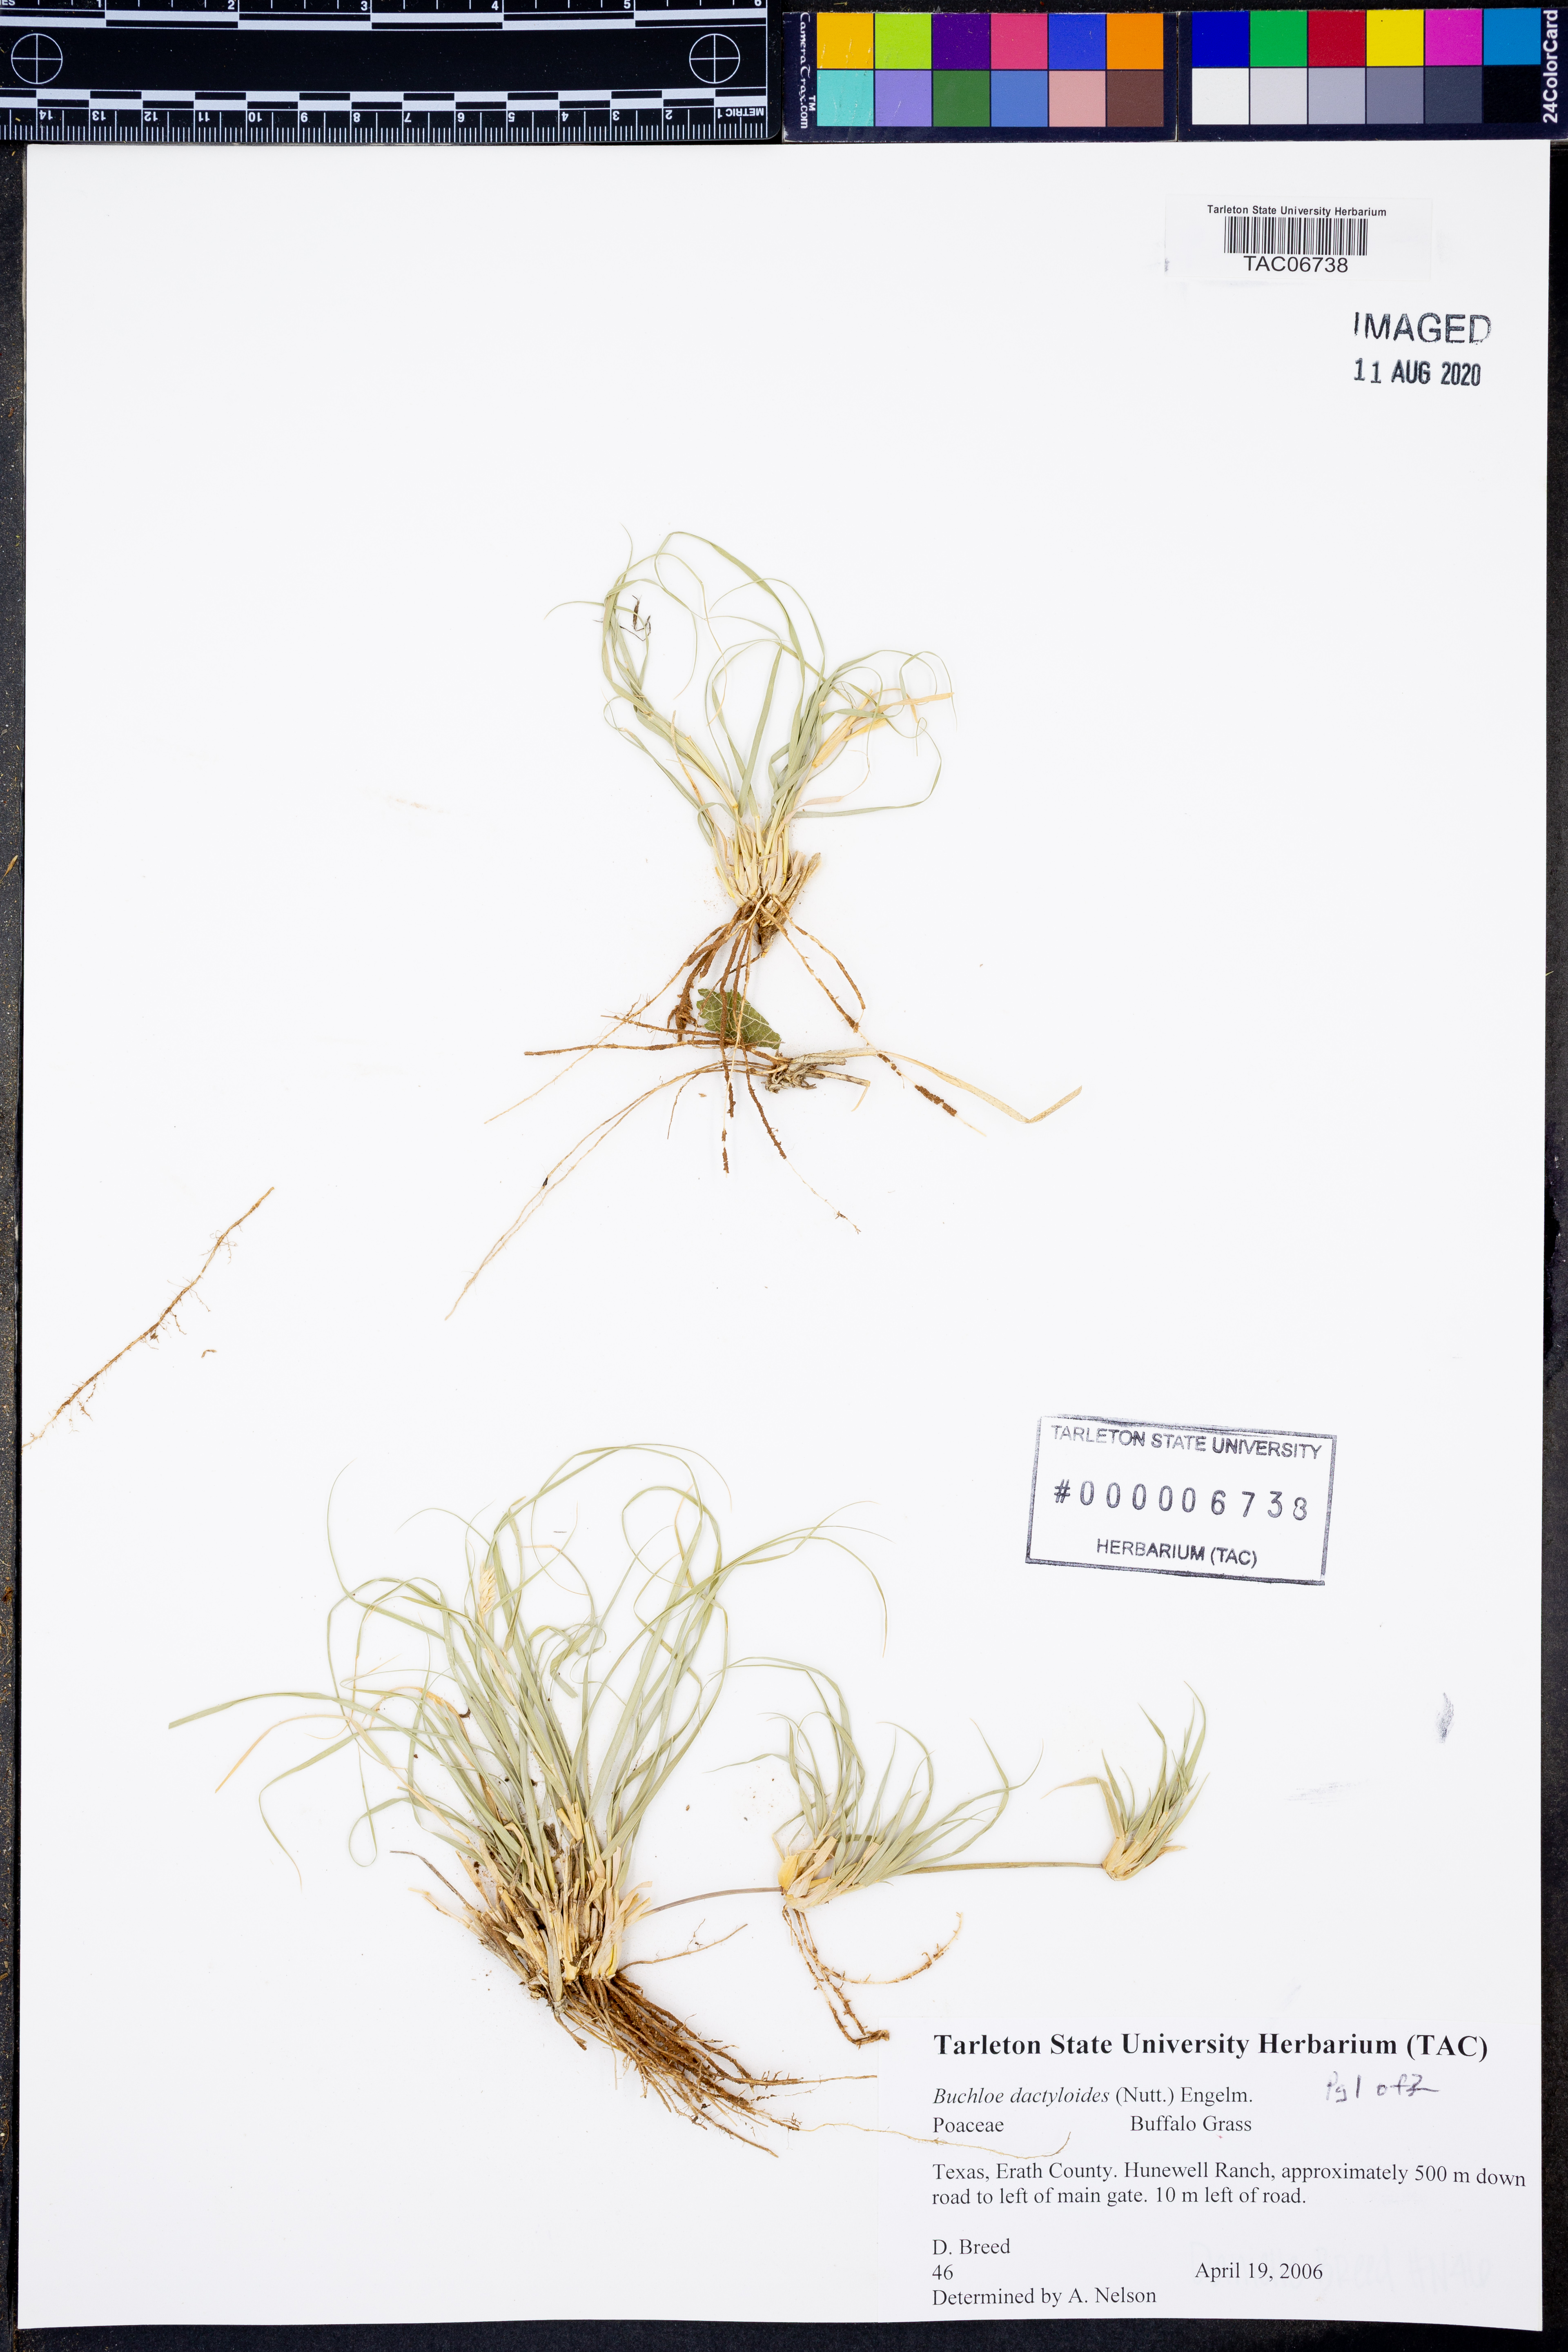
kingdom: Plantae
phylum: Tracheophyta
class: Liliopsida
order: Poales
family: Poaceae
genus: Bouteloua
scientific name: Bouteloua dactyloides
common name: Buffalo grass
